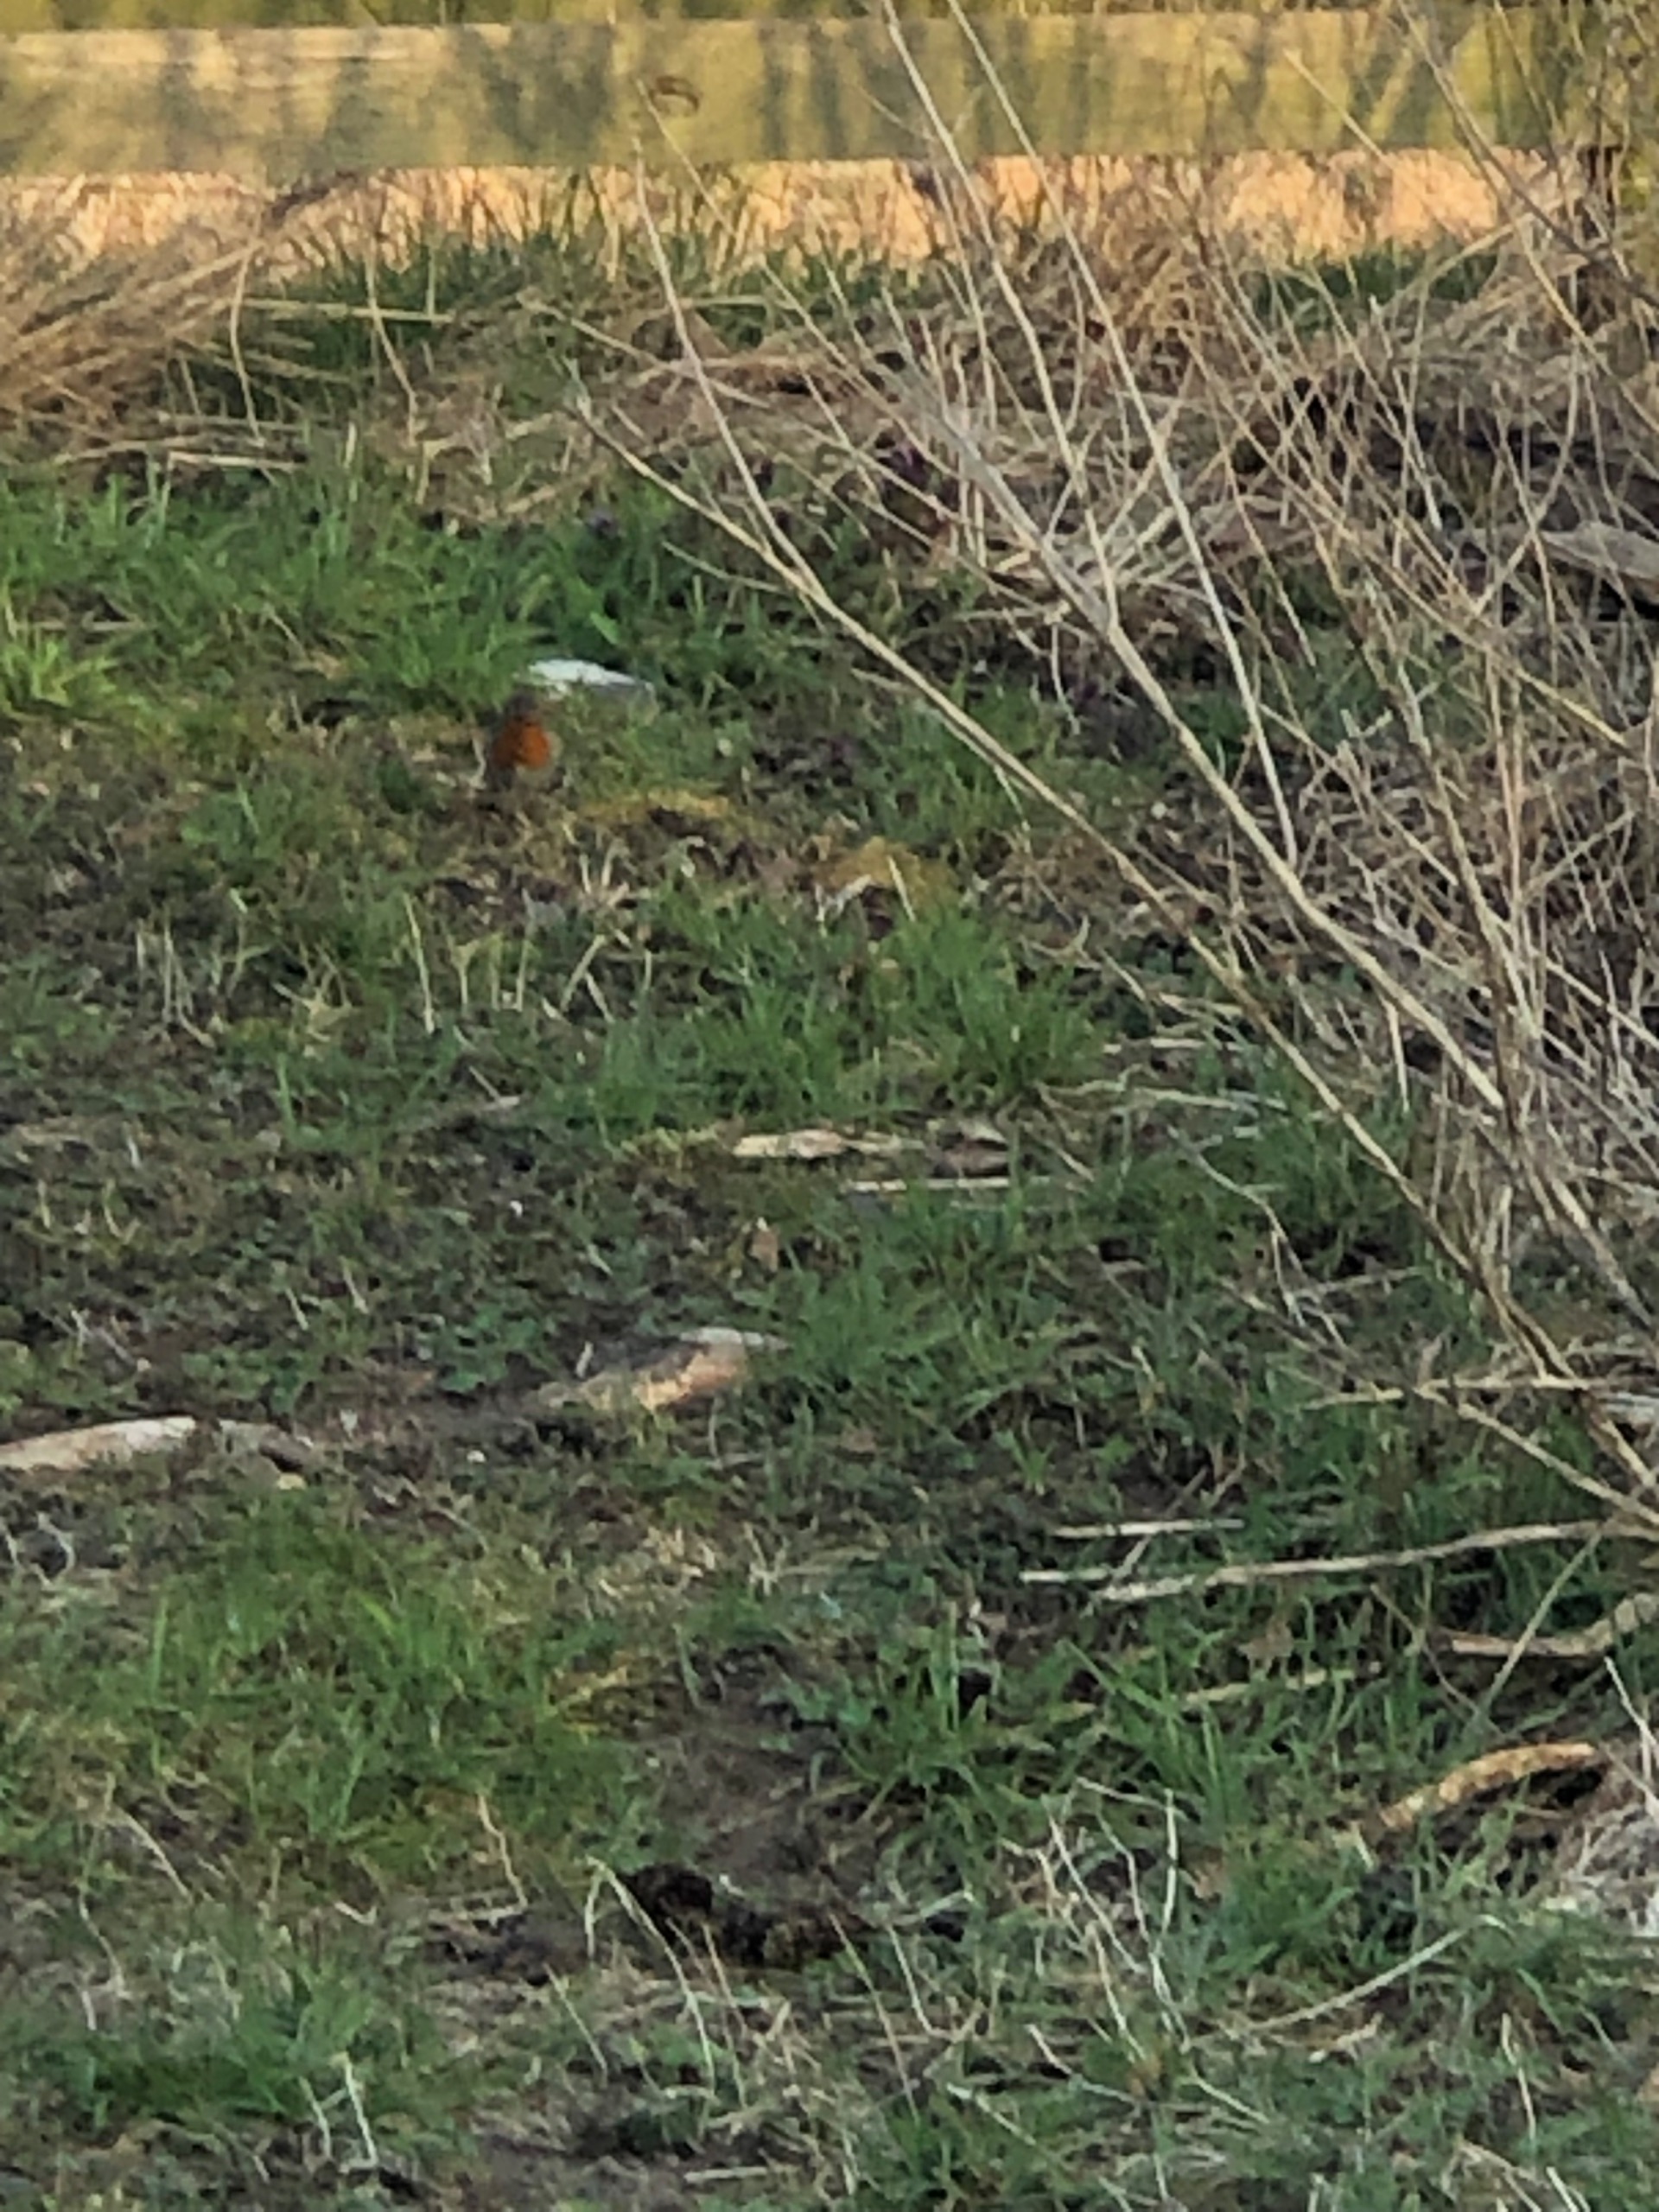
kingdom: Animalia
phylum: Chordata
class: Aves
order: Passeriformes
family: Muscicapidae
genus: Erithacus
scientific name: Erithacus rubecula
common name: Rødhals/rødkælk
